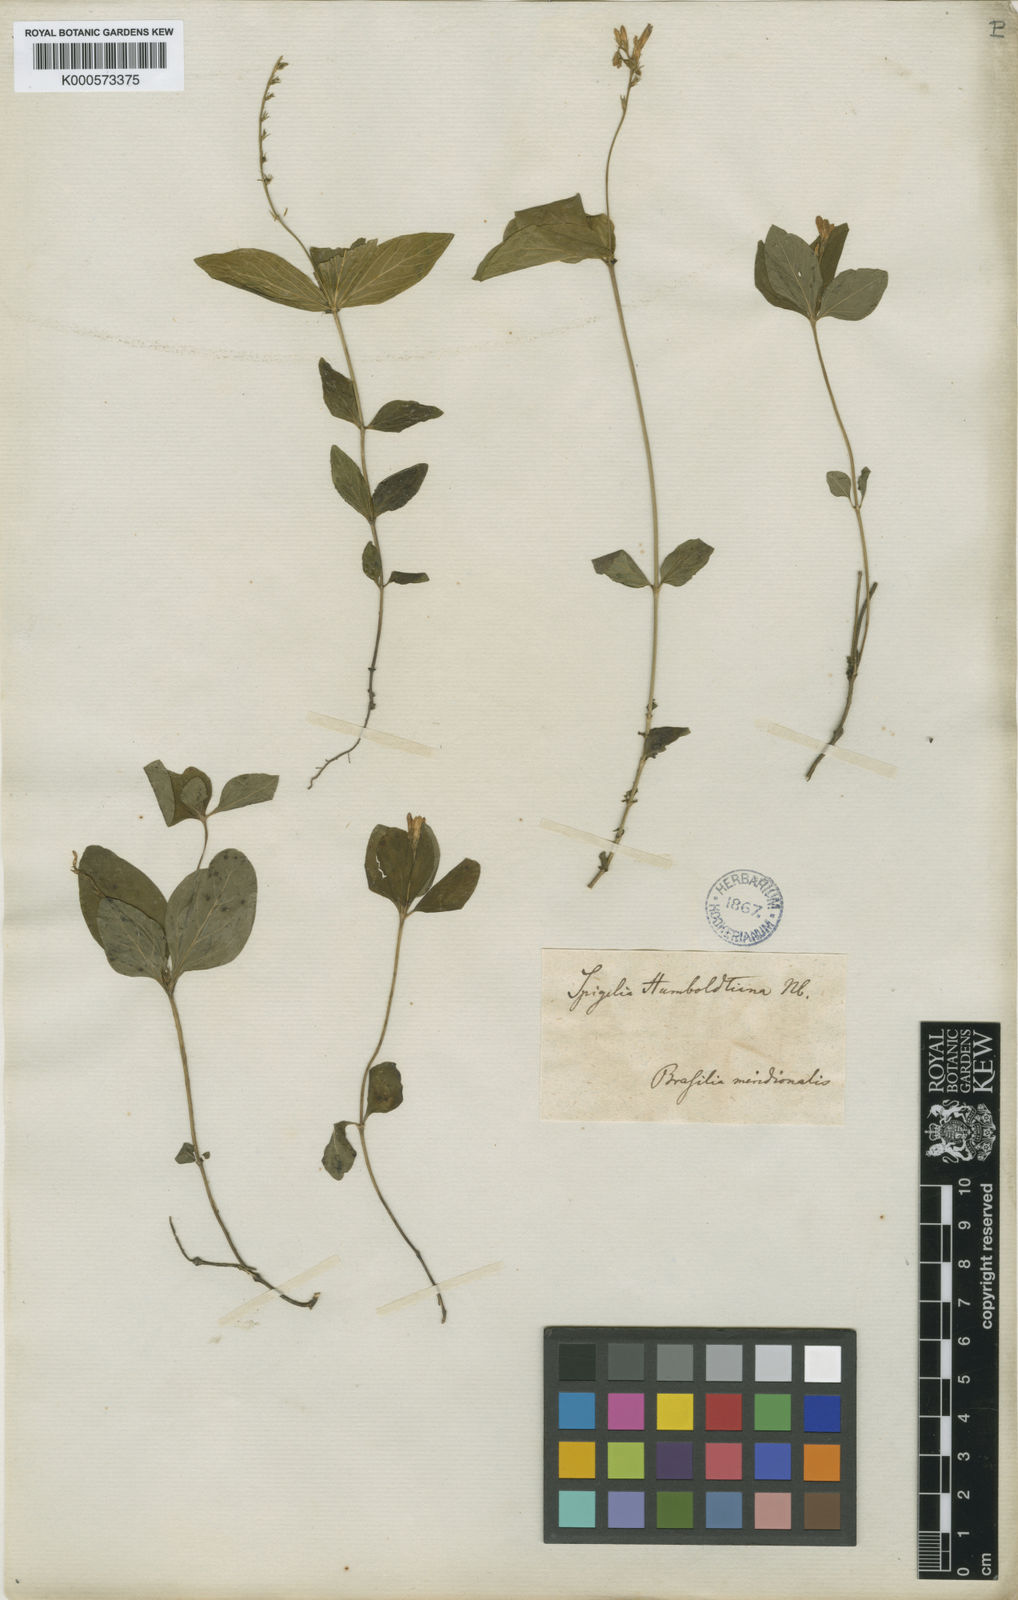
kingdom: Plantae
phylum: Tracheophyta
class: Magnoliopsida
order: Gentianales
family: Loganiaceae
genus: Spigelia
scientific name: Spigelia humboldtiana
